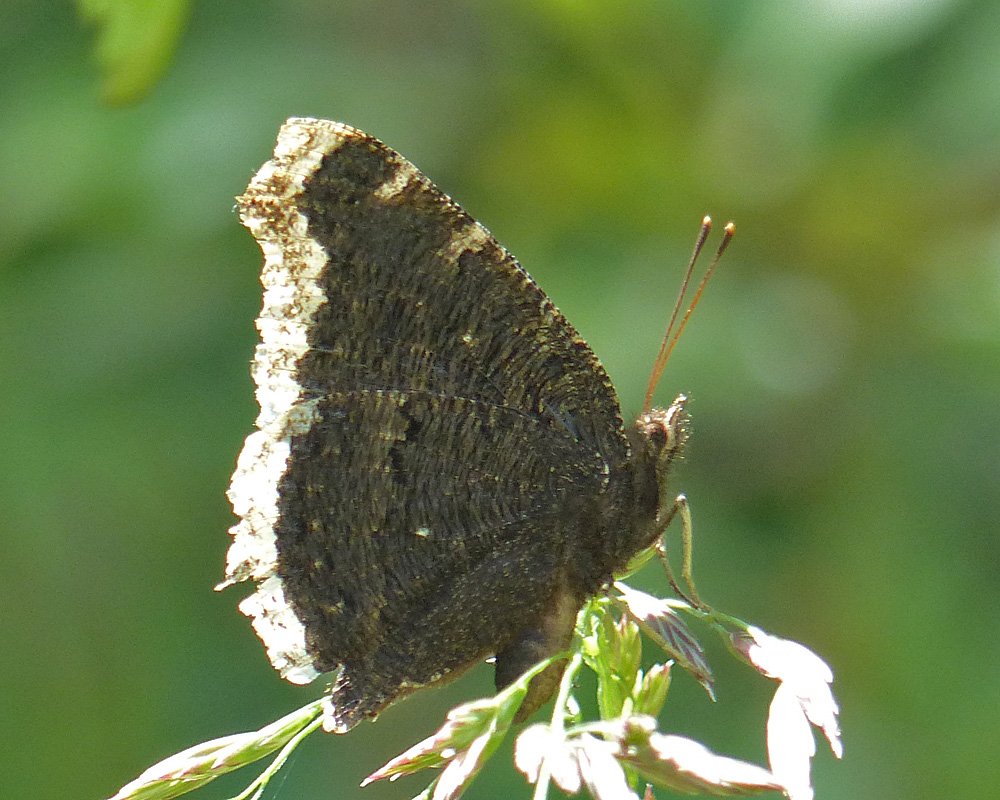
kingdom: Animalia
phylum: Arthropoda
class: Insecta
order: Lepidoptera
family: Nymphalidae
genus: Nymphalis
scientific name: Nymphalis antiopa
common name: Mourning Cloak
